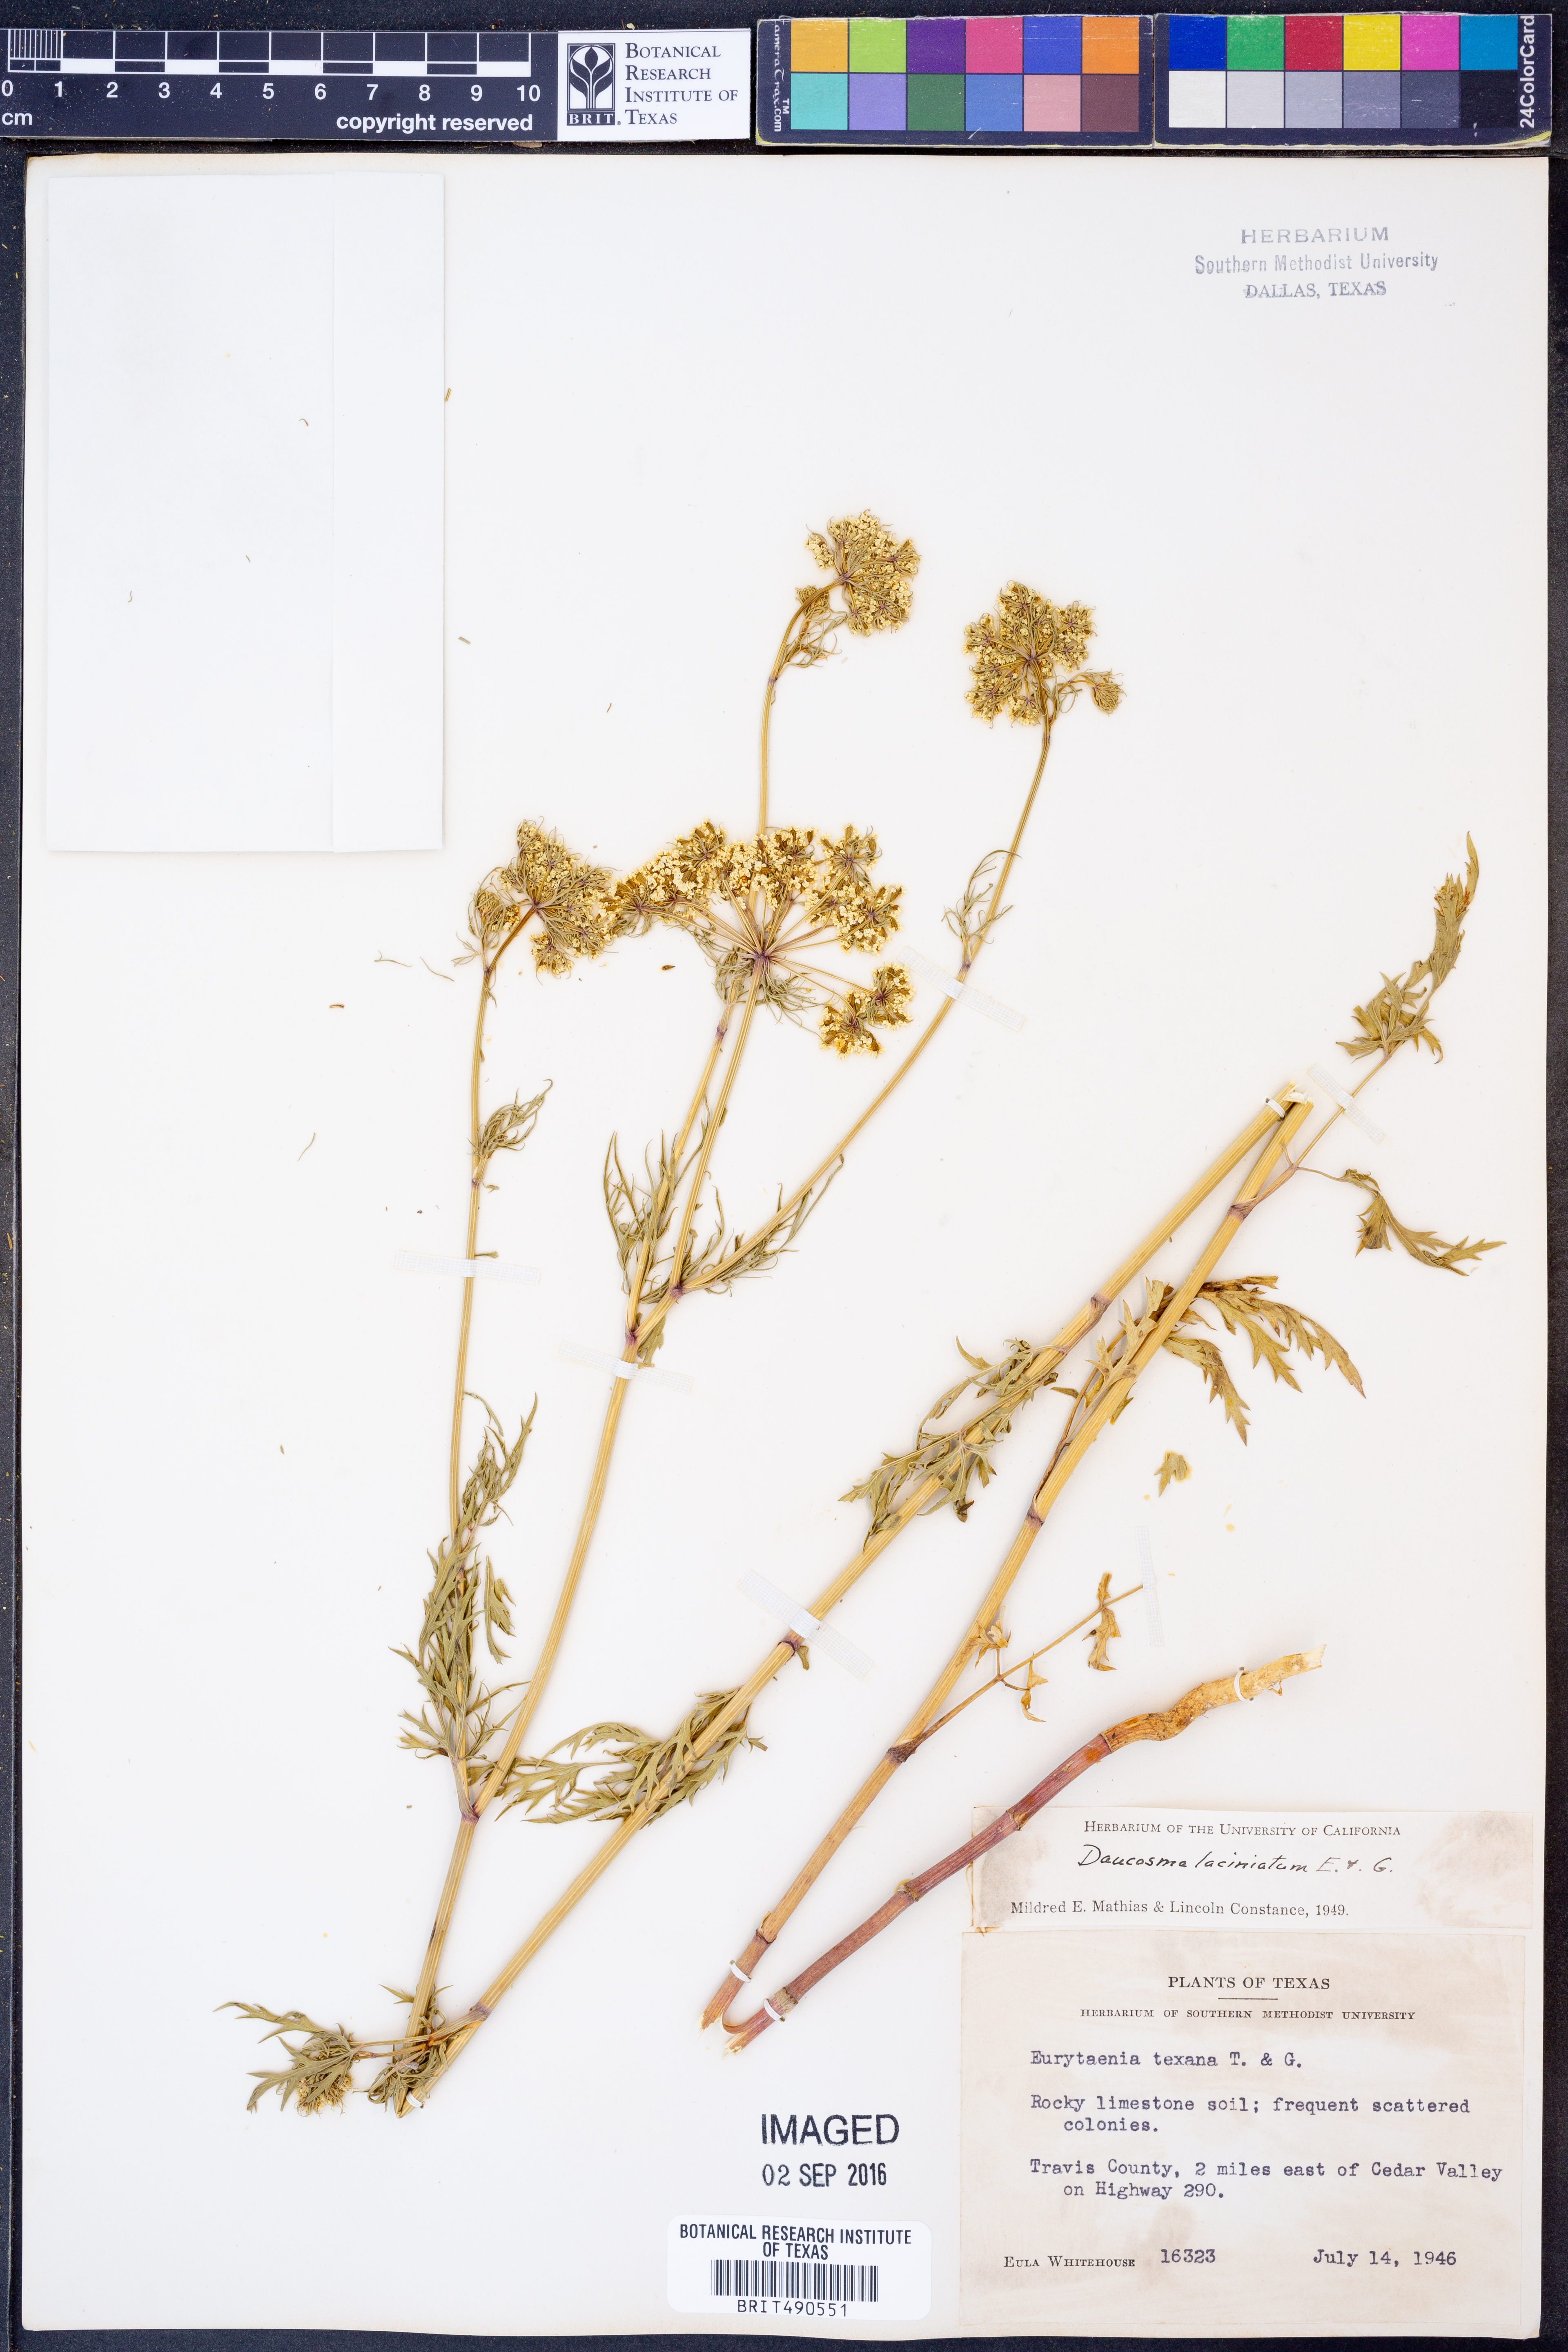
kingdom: Plantae
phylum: Tracheophyta
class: Magnoliopsida
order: Apiales
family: Apiaceae
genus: Daucosma
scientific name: Daucosma laciniatum
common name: Meadow-parasol
